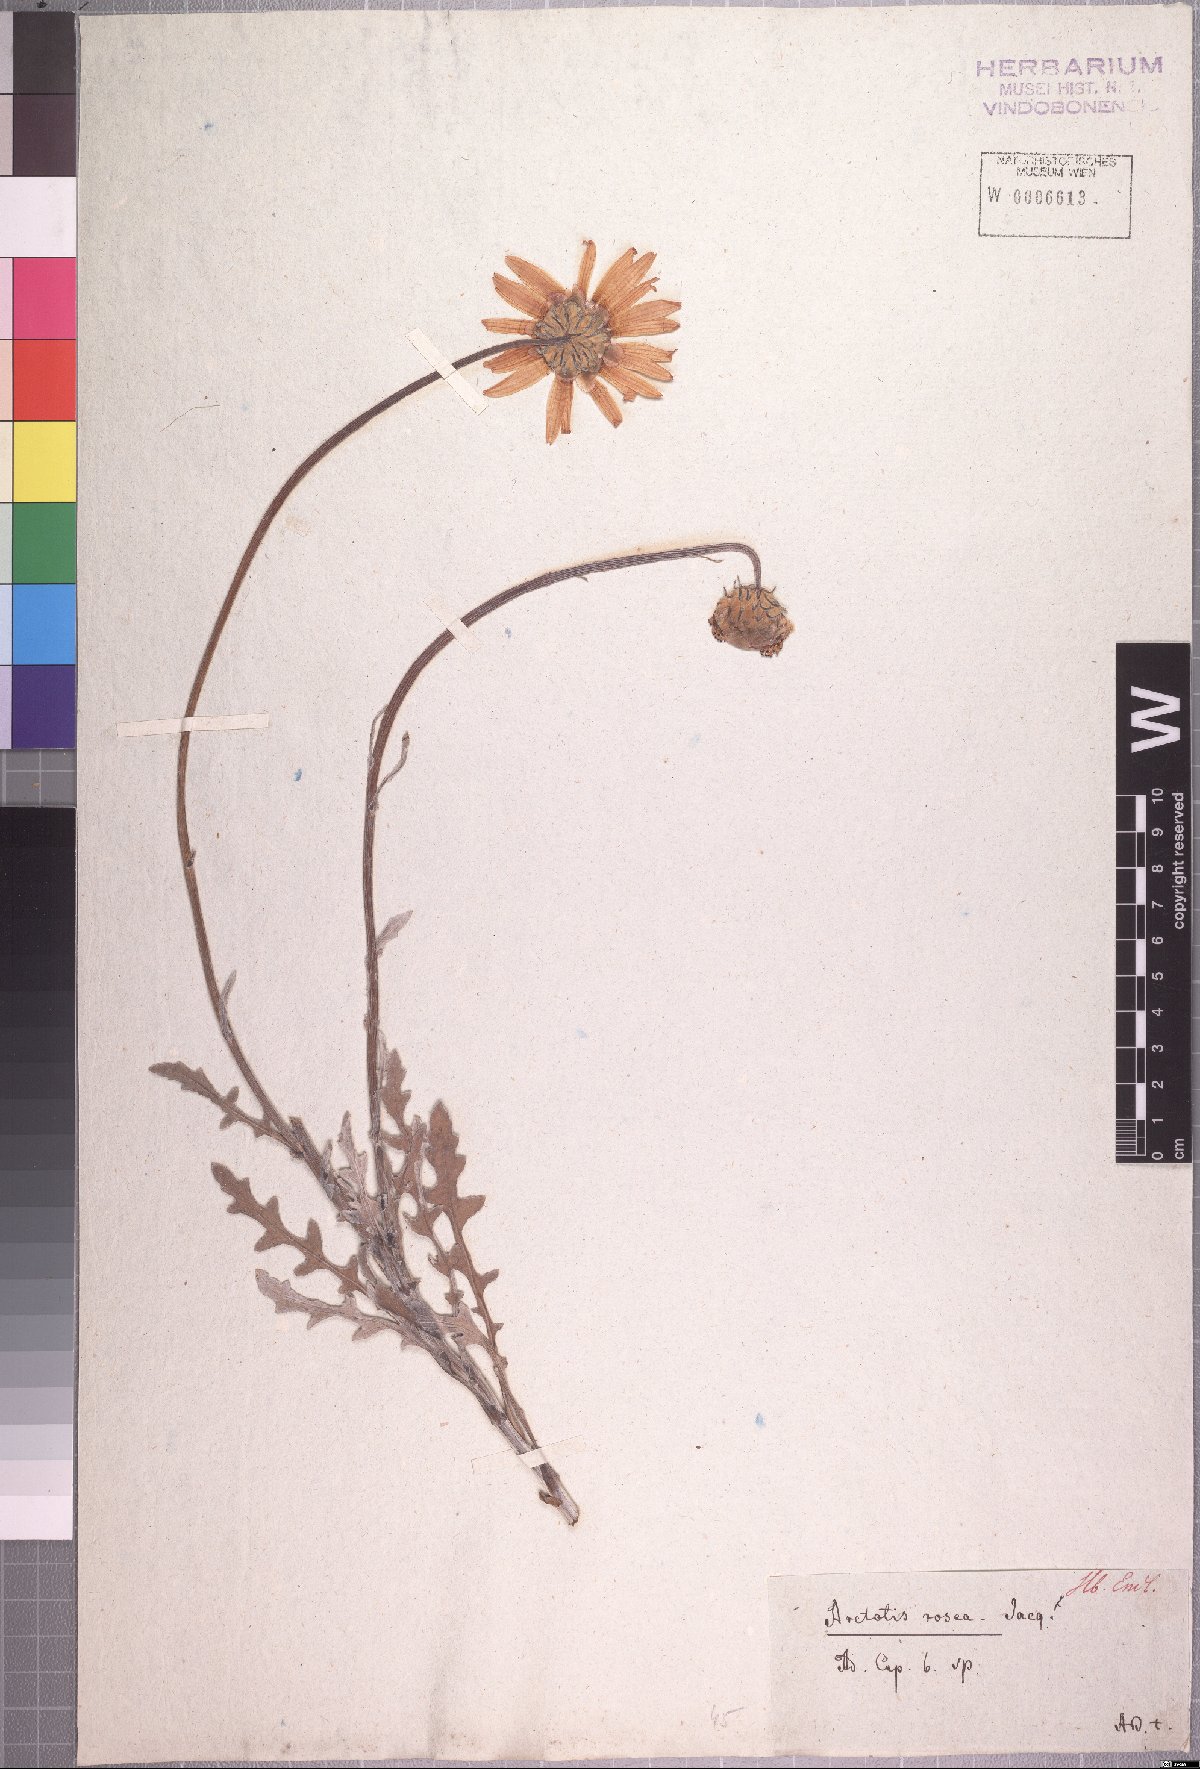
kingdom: Plantae
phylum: Tracheophyta
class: Magnoliopsida
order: Asterales
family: Asteraceae
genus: Arctotis
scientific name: Arctotis rosea
